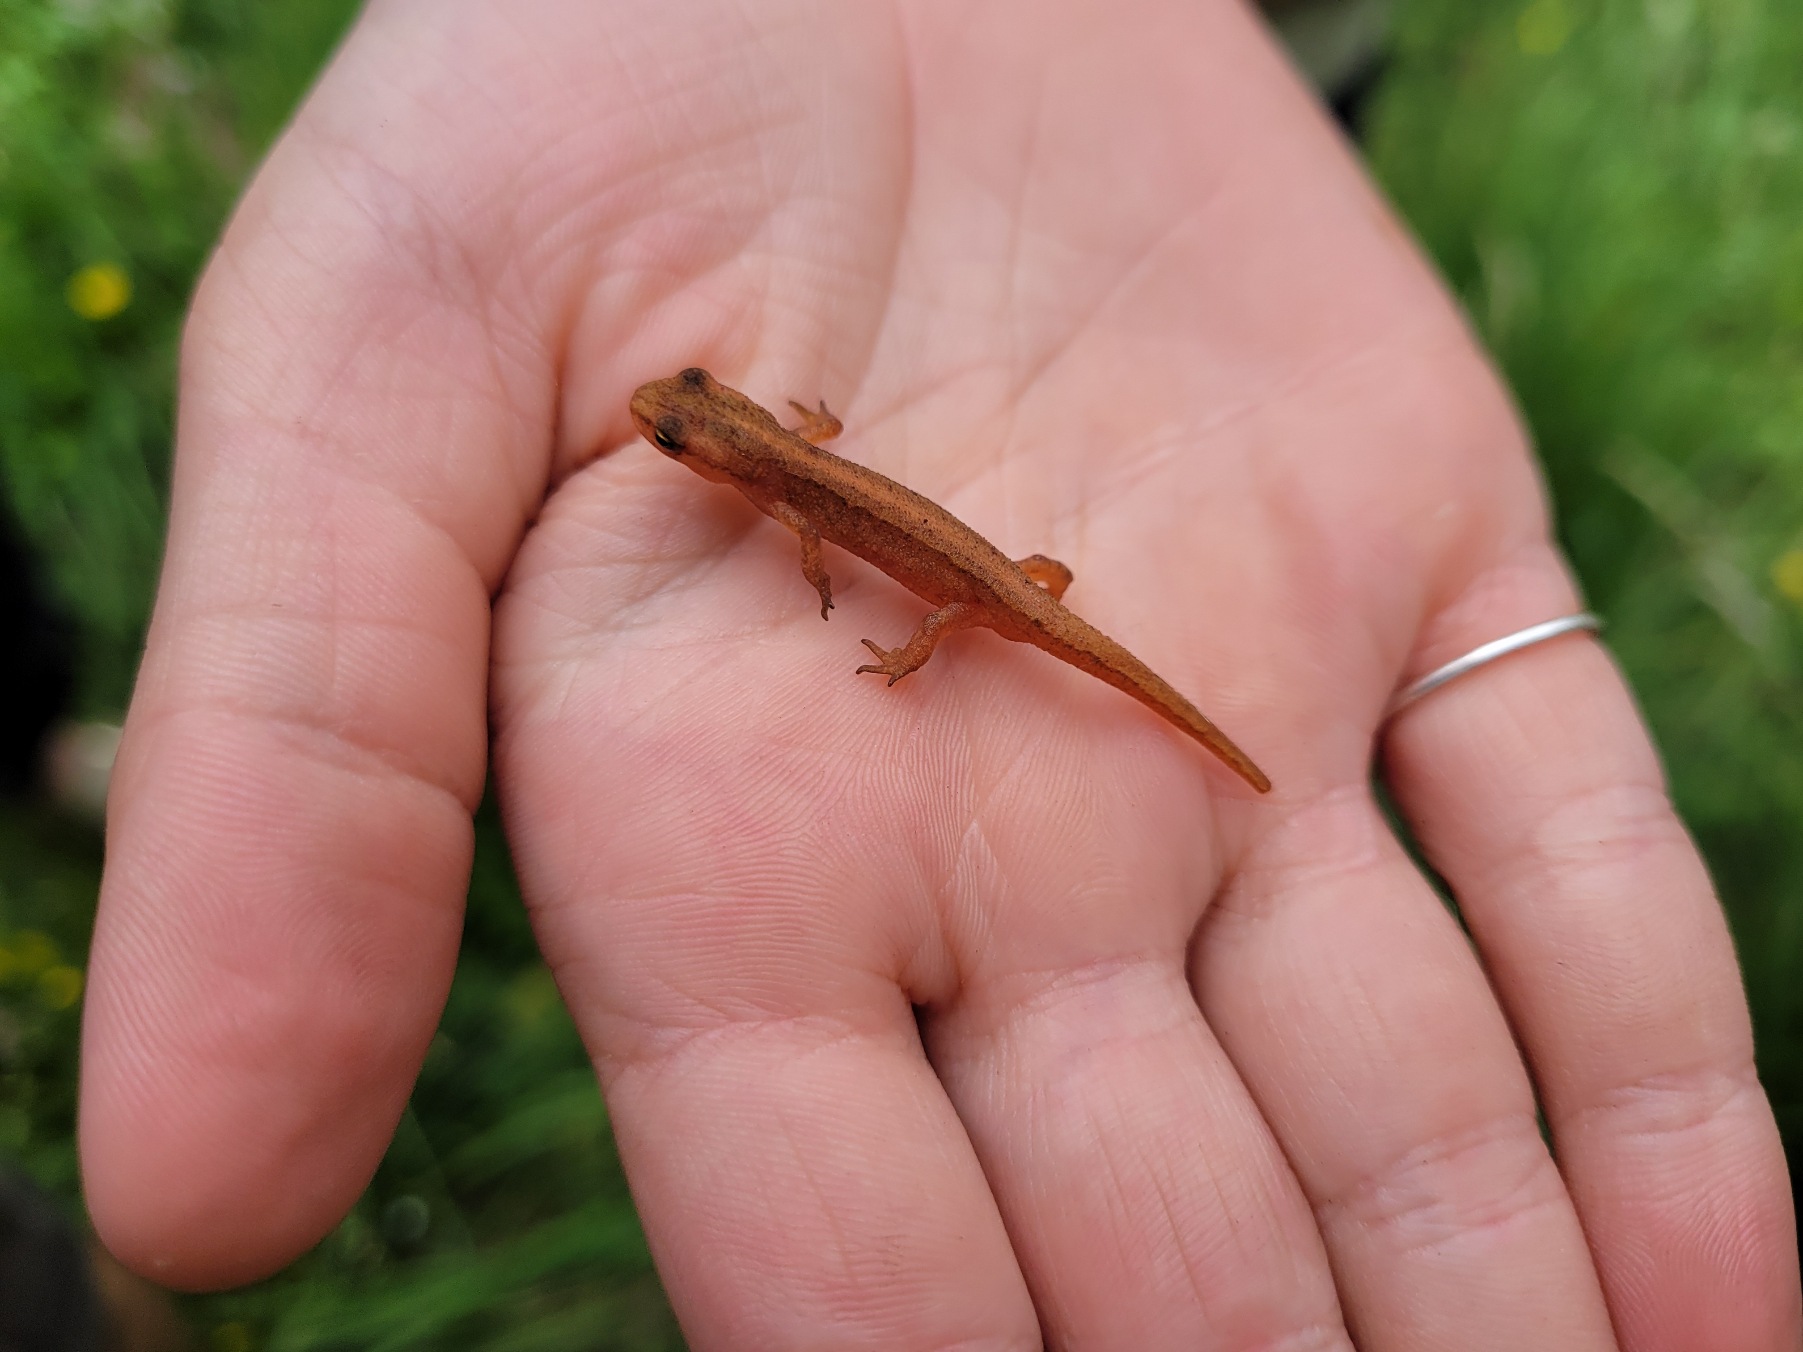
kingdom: Animalia
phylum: Chordata
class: Amphibia
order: Caudata
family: Salamandridae
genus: Lissotriton
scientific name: Lissotriton vulgaris
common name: Lille vandsalamander
